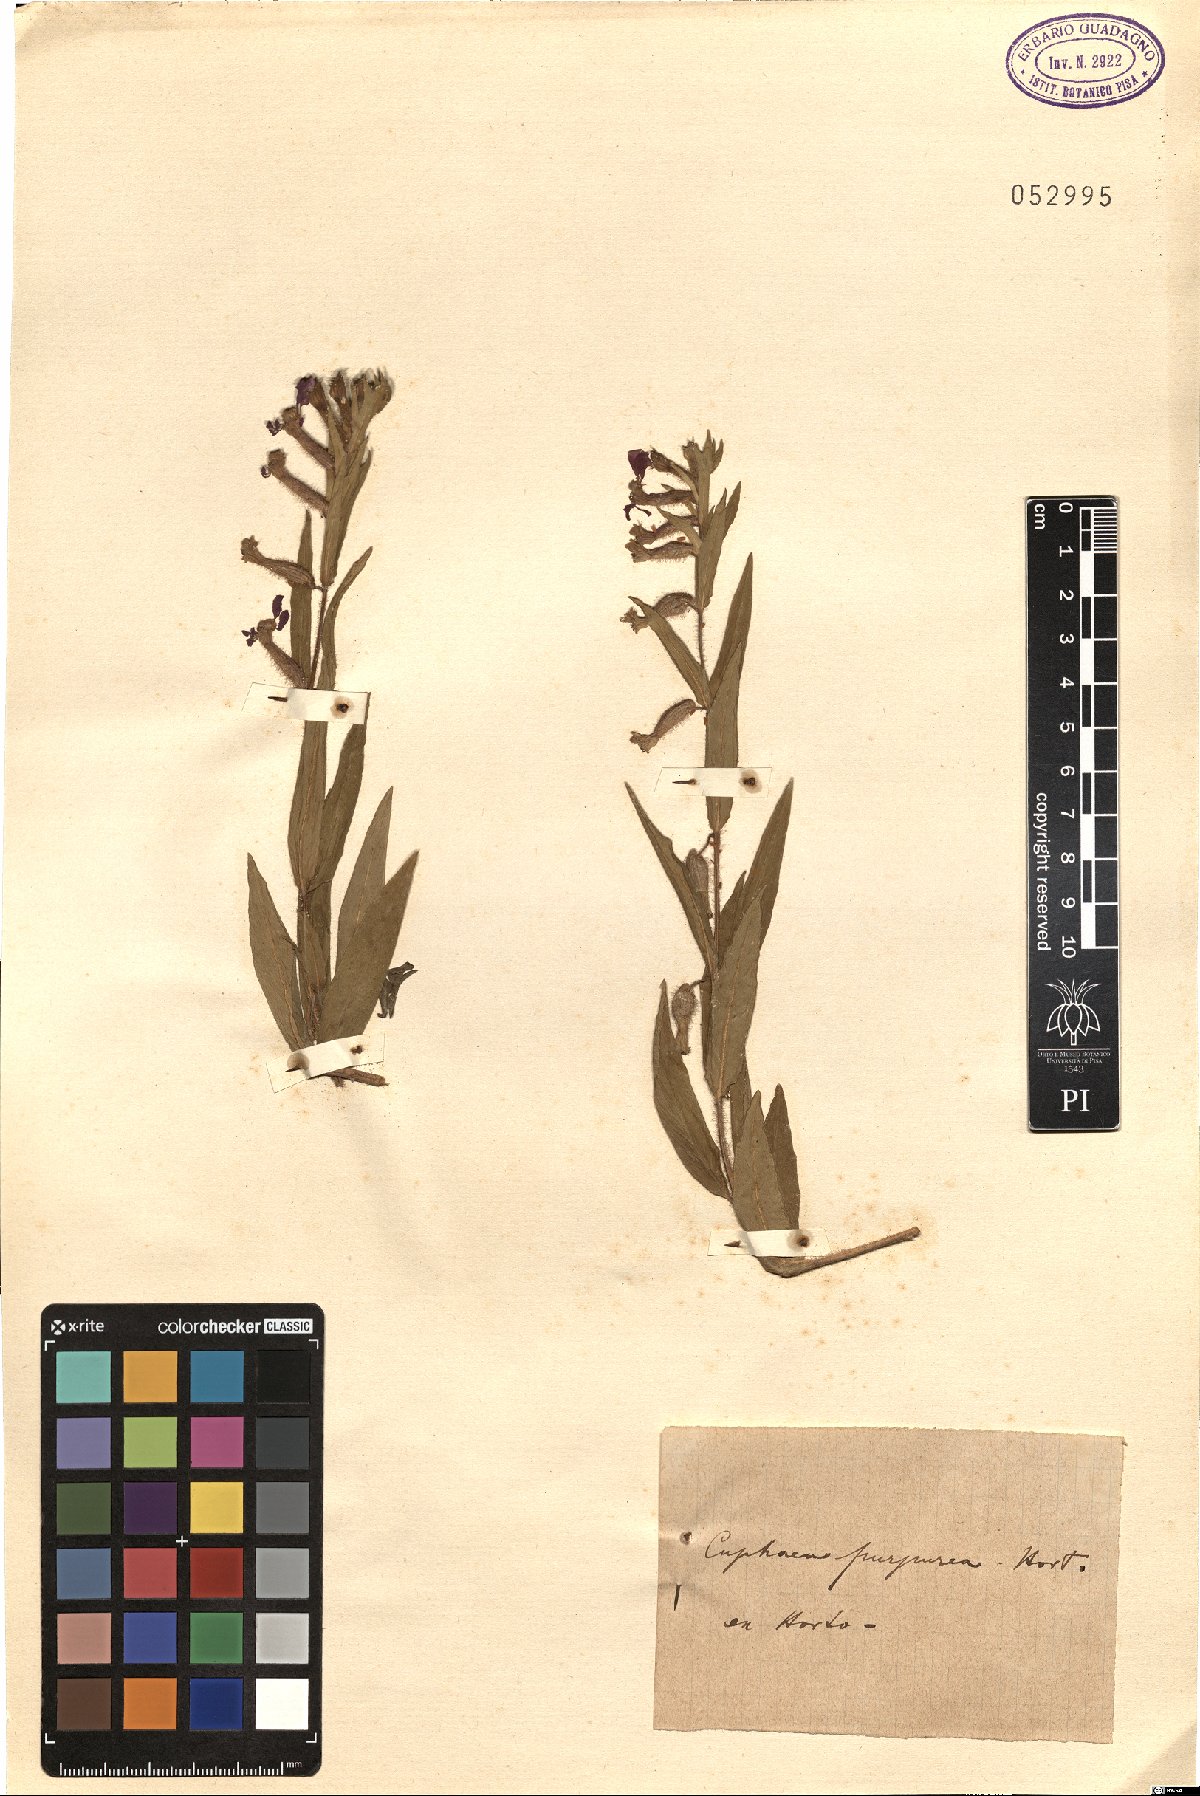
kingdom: Plantae
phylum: Tracheophyta
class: Magnoliopsida
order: Myrtales
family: Lythraceae
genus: Cuphea
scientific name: Cuphea purpurea
